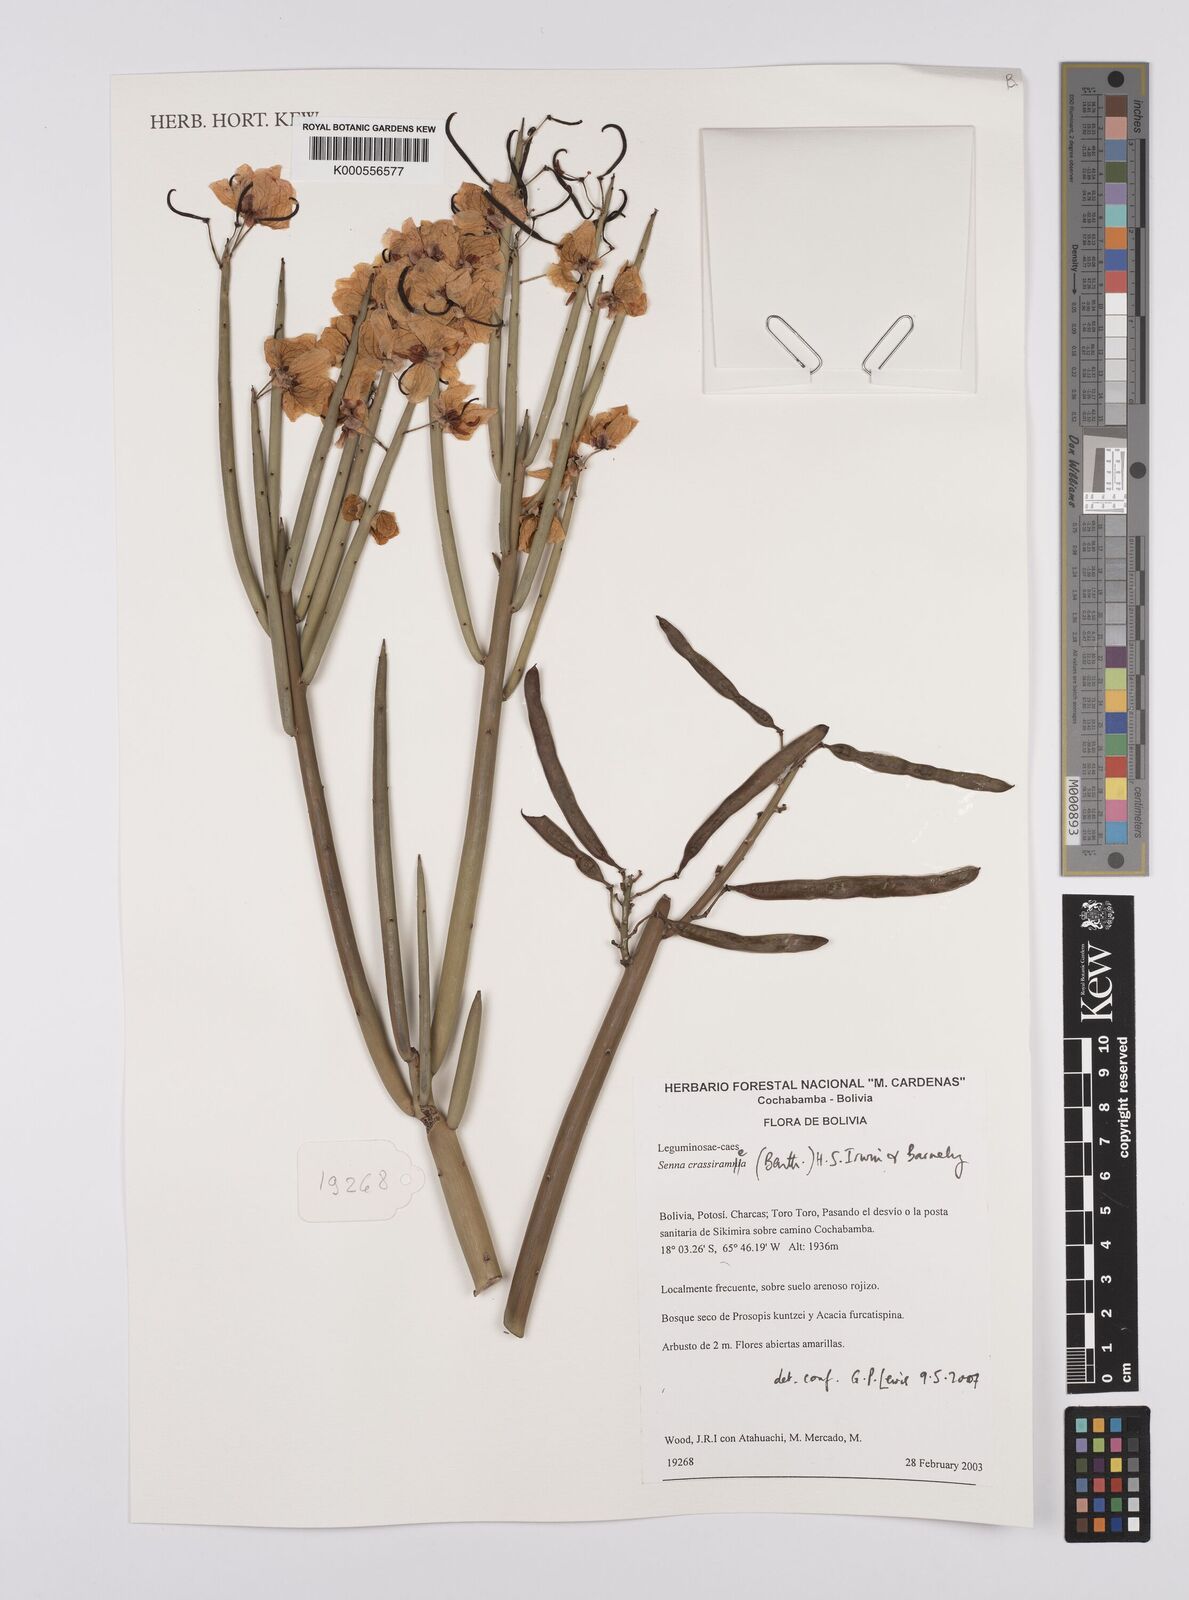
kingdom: Plantae
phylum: Tracheophyta
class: Magnoliopsida
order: Fabales
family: Fabaceae
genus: Senna
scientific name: Senna crassiramea
